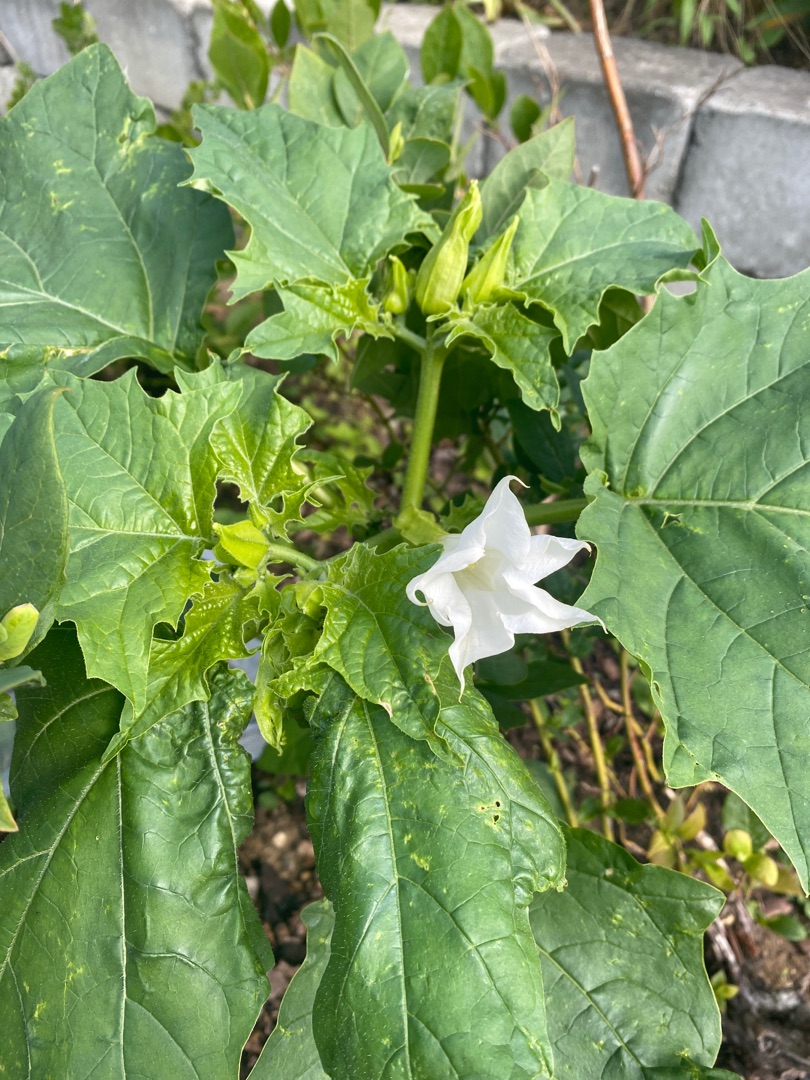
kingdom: Plantae
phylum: Tracheophyta
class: Magnoliopsida
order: Solanales
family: Solanaceae
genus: Datura
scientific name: Datura stramonium
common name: Pigæble
